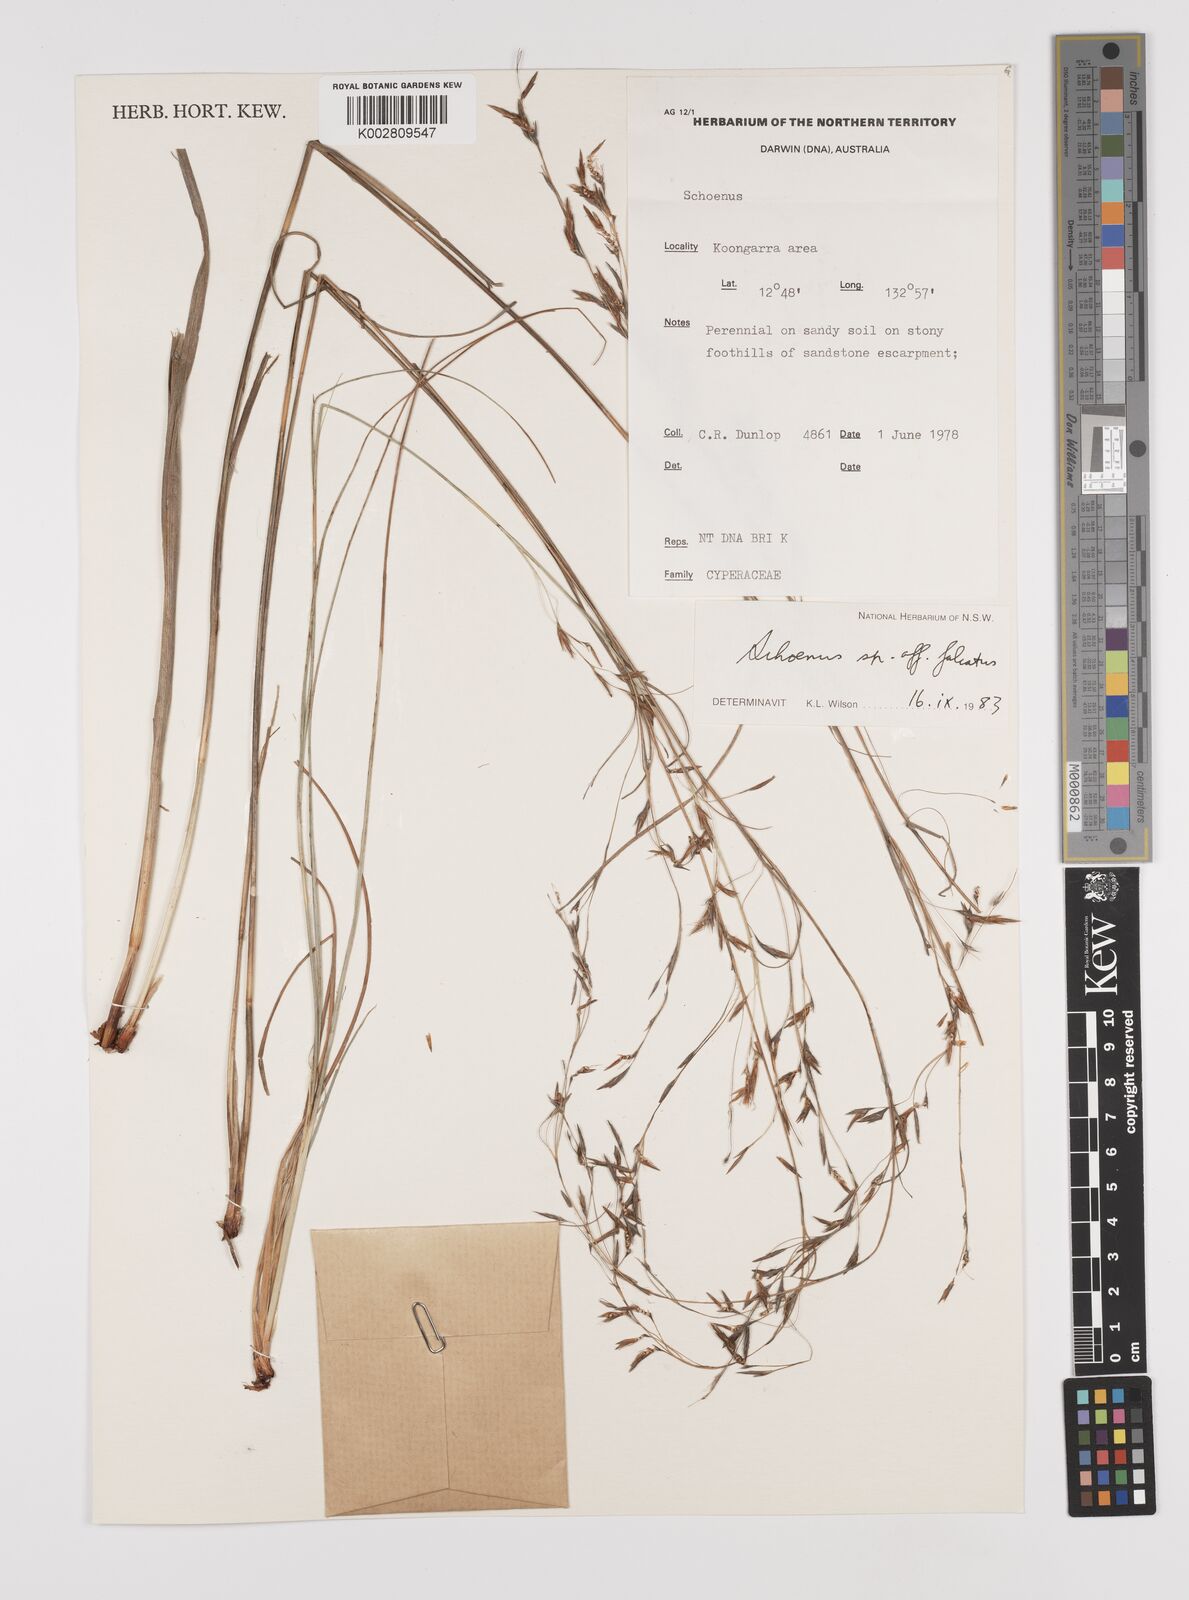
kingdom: Plantae
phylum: Tracheophyta
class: Liliopsida
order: Poales
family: Cyperaceae
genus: Schoenus
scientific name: Schoenus
